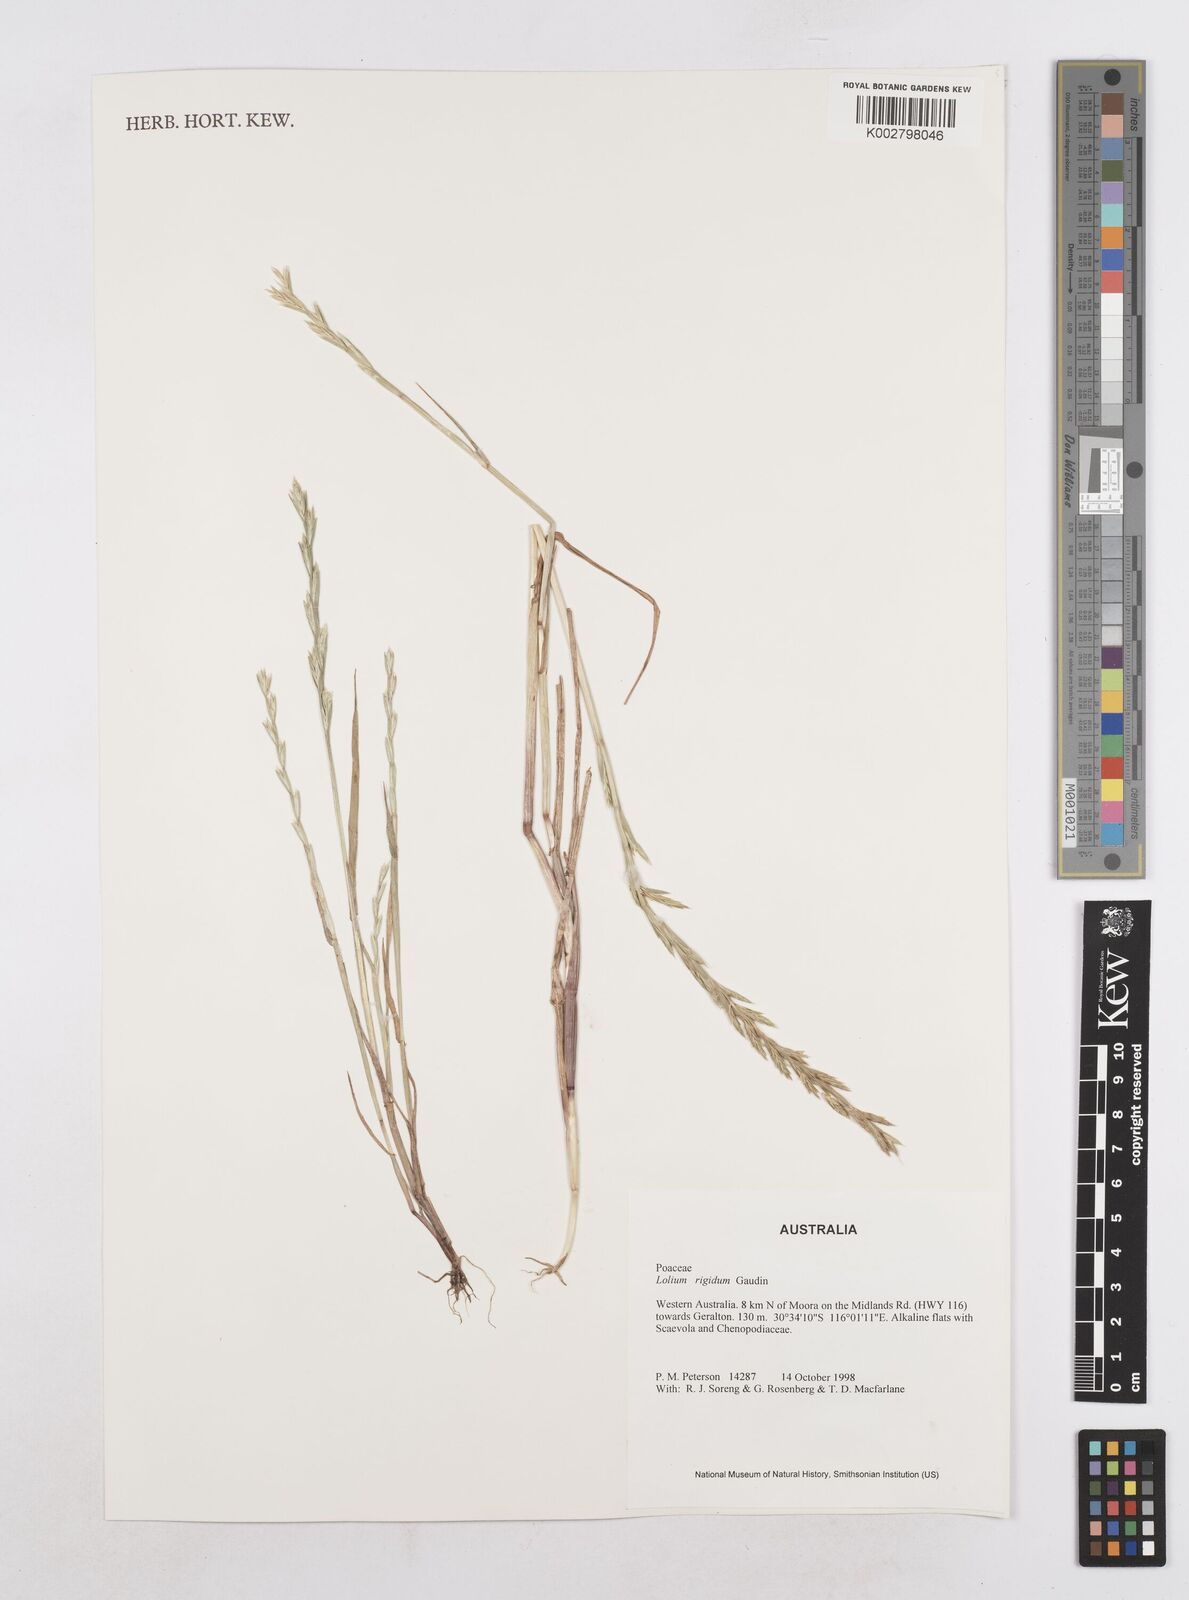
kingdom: Plantae
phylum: Tracheophyta
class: Liliopsida
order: Poales
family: Poaceae
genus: Lolium
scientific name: Lolium
